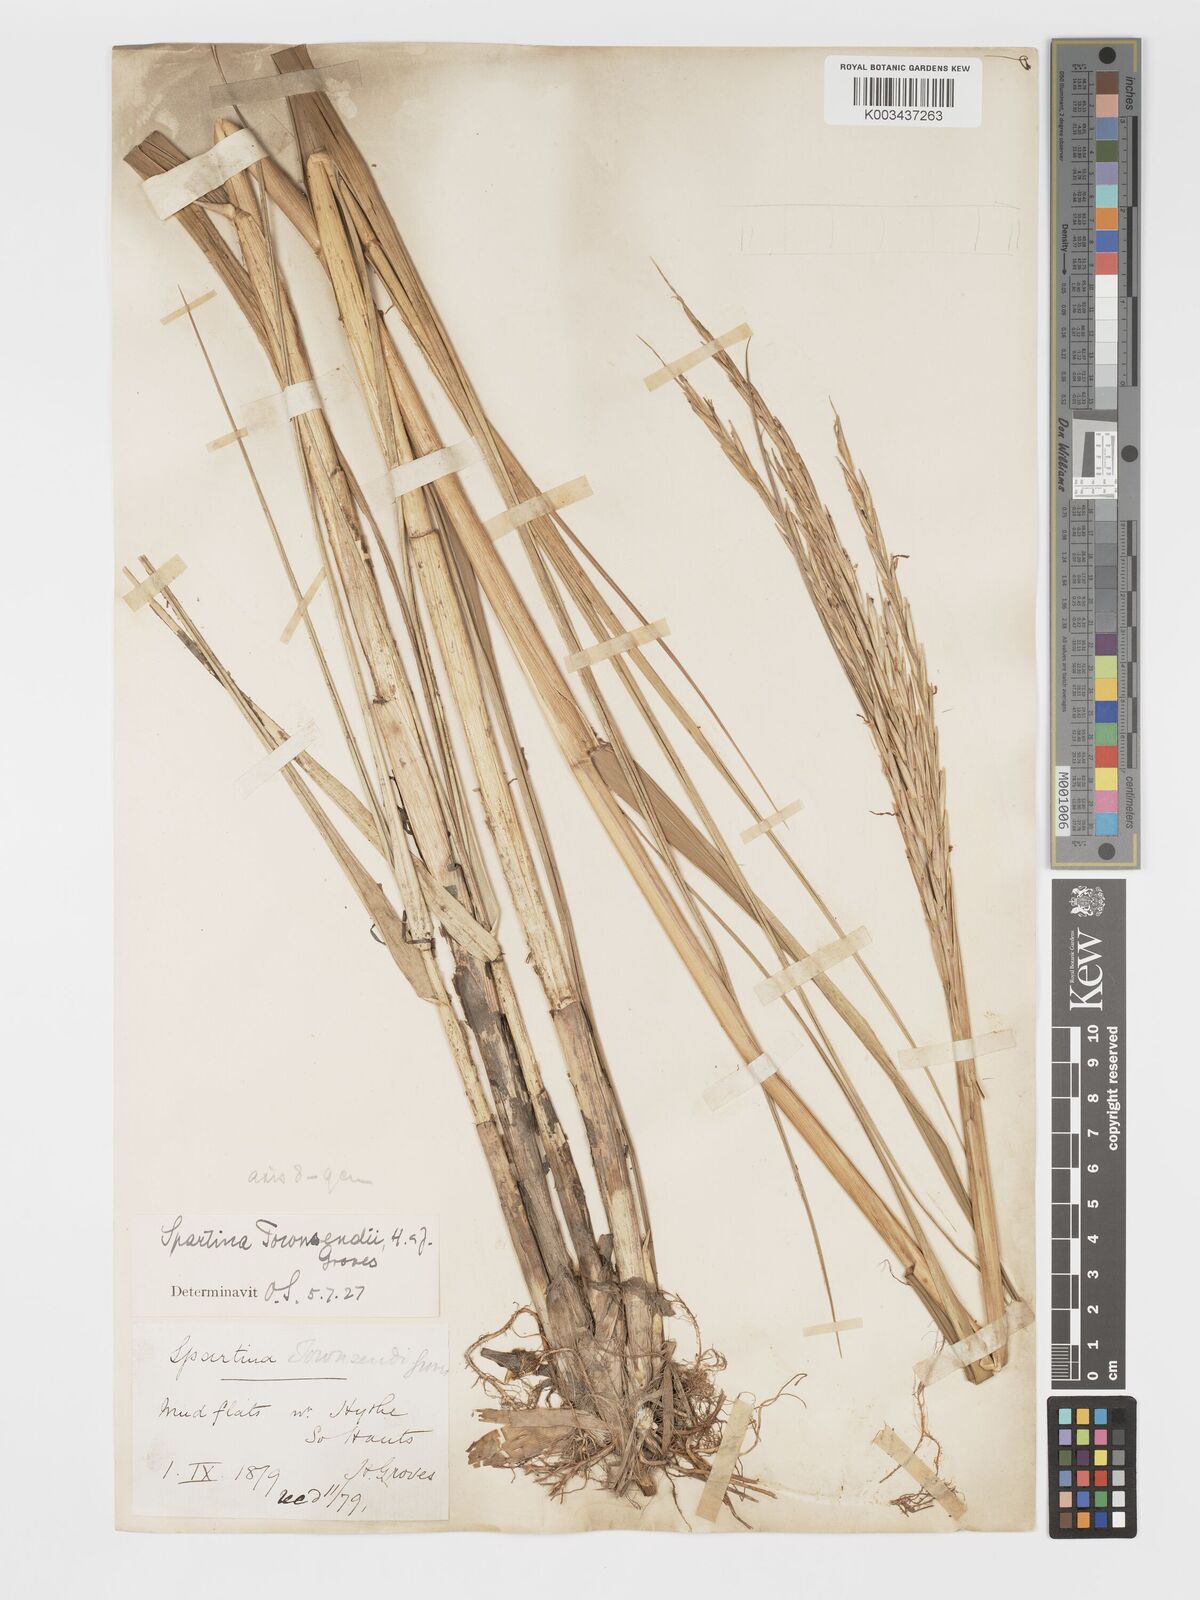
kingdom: Plantae
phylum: Tracheophyta
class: Liliopsida
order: Poales
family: Poaceae
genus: Sporobolus
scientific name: Sporobolus townsendii
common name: Townsend's cordgrass
